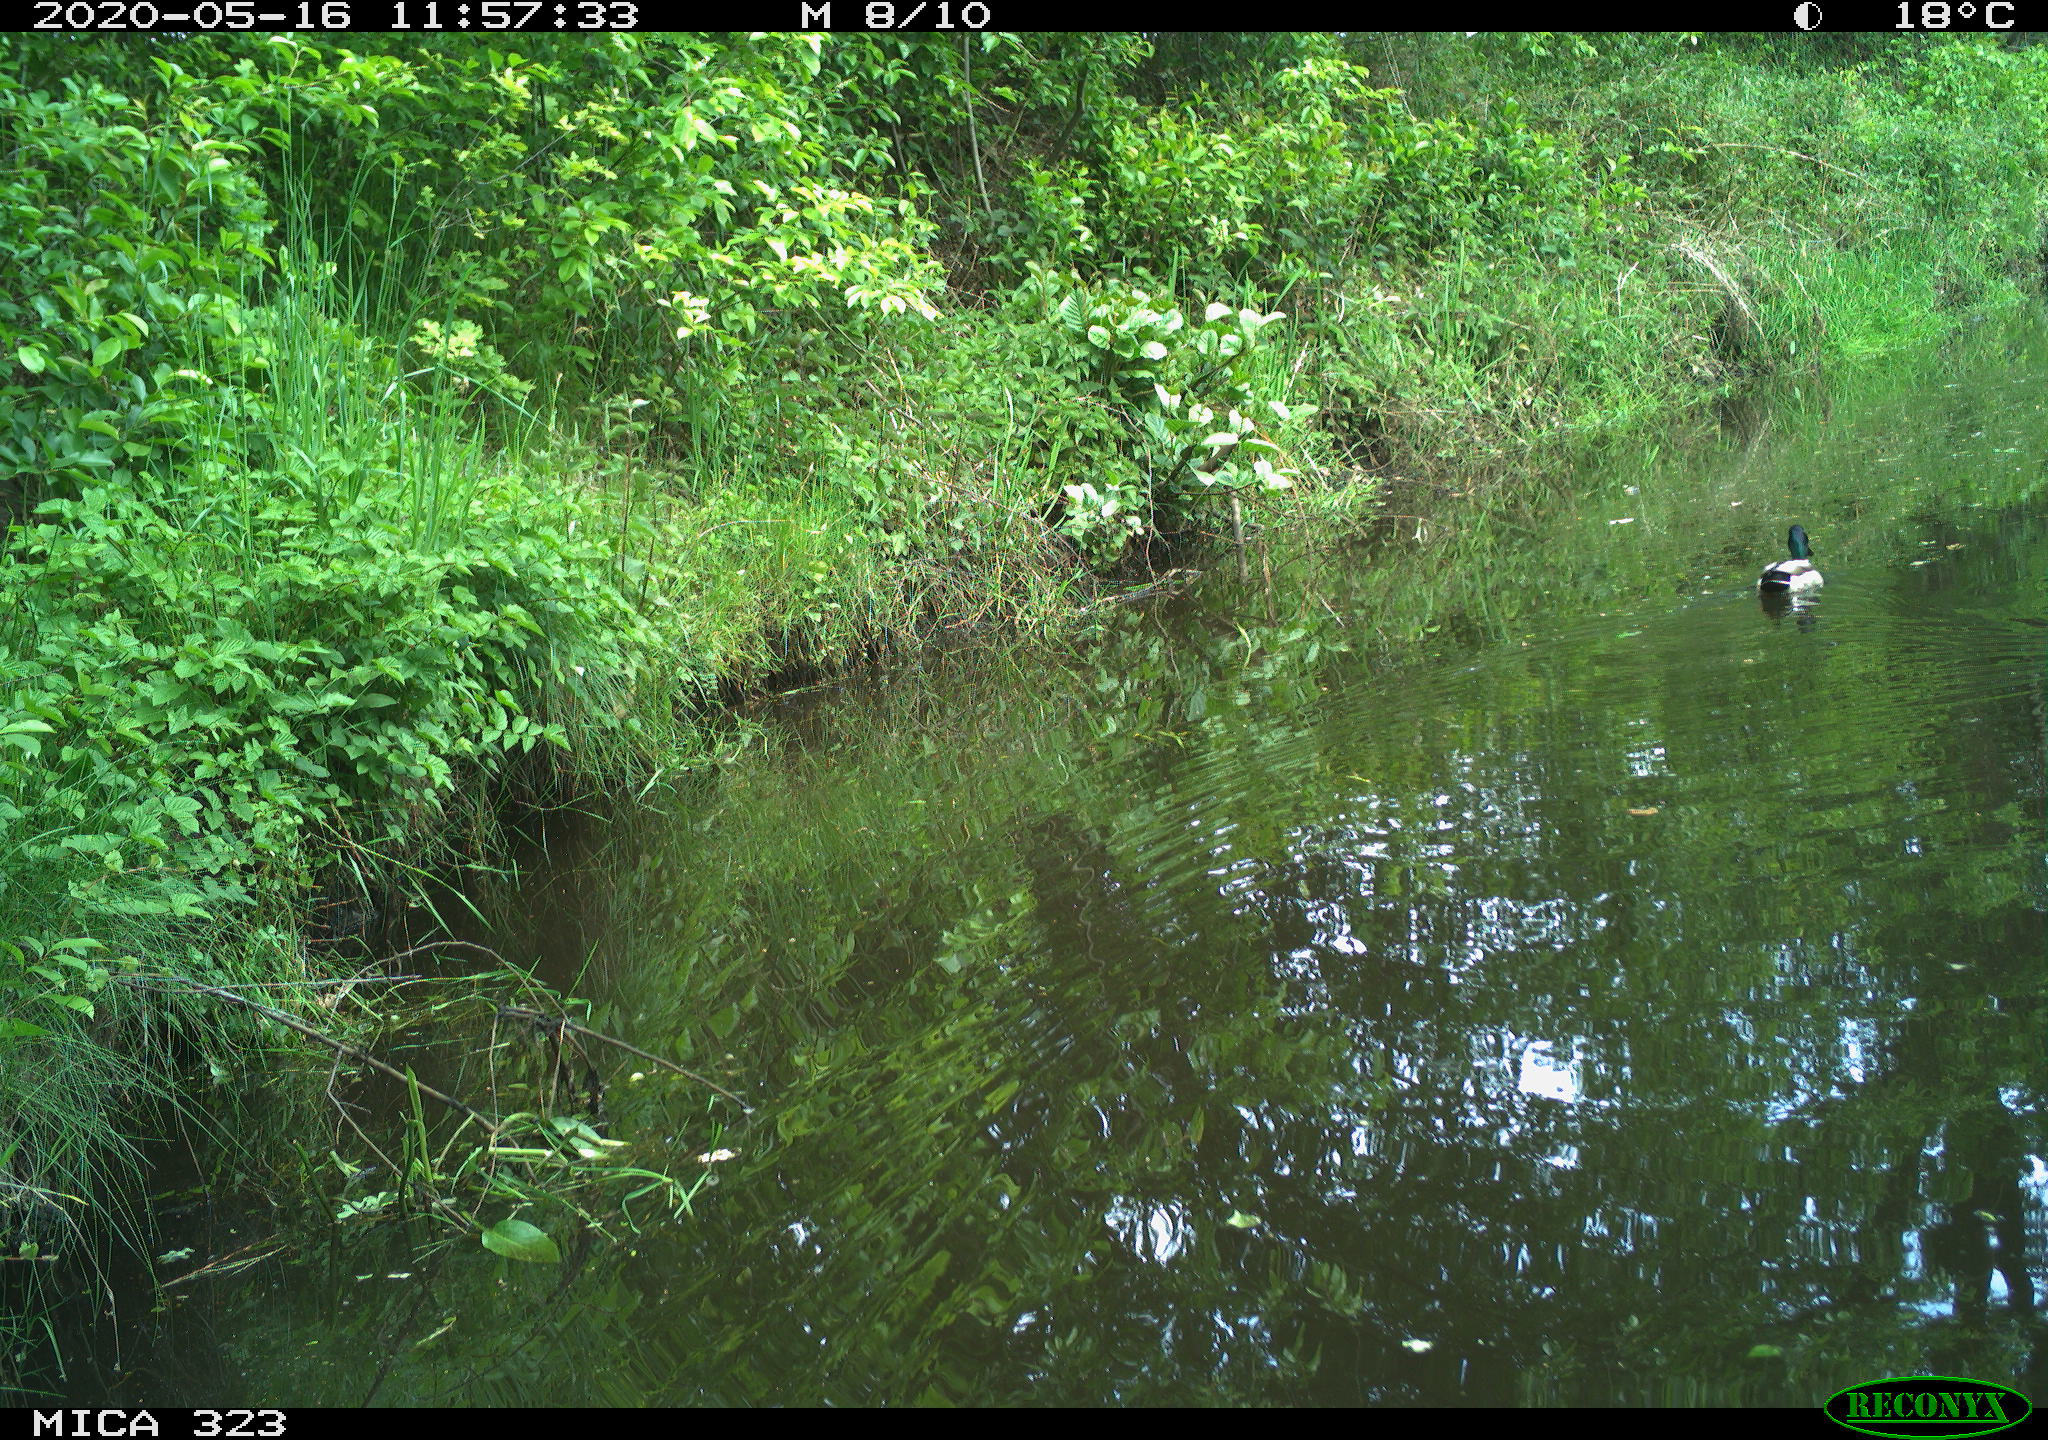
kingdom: Animalia
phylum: Chordata
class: Aves
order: Anseriformes
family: Anatidae
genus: Anas
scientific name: Anas platyrhynchos
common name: Mallard
